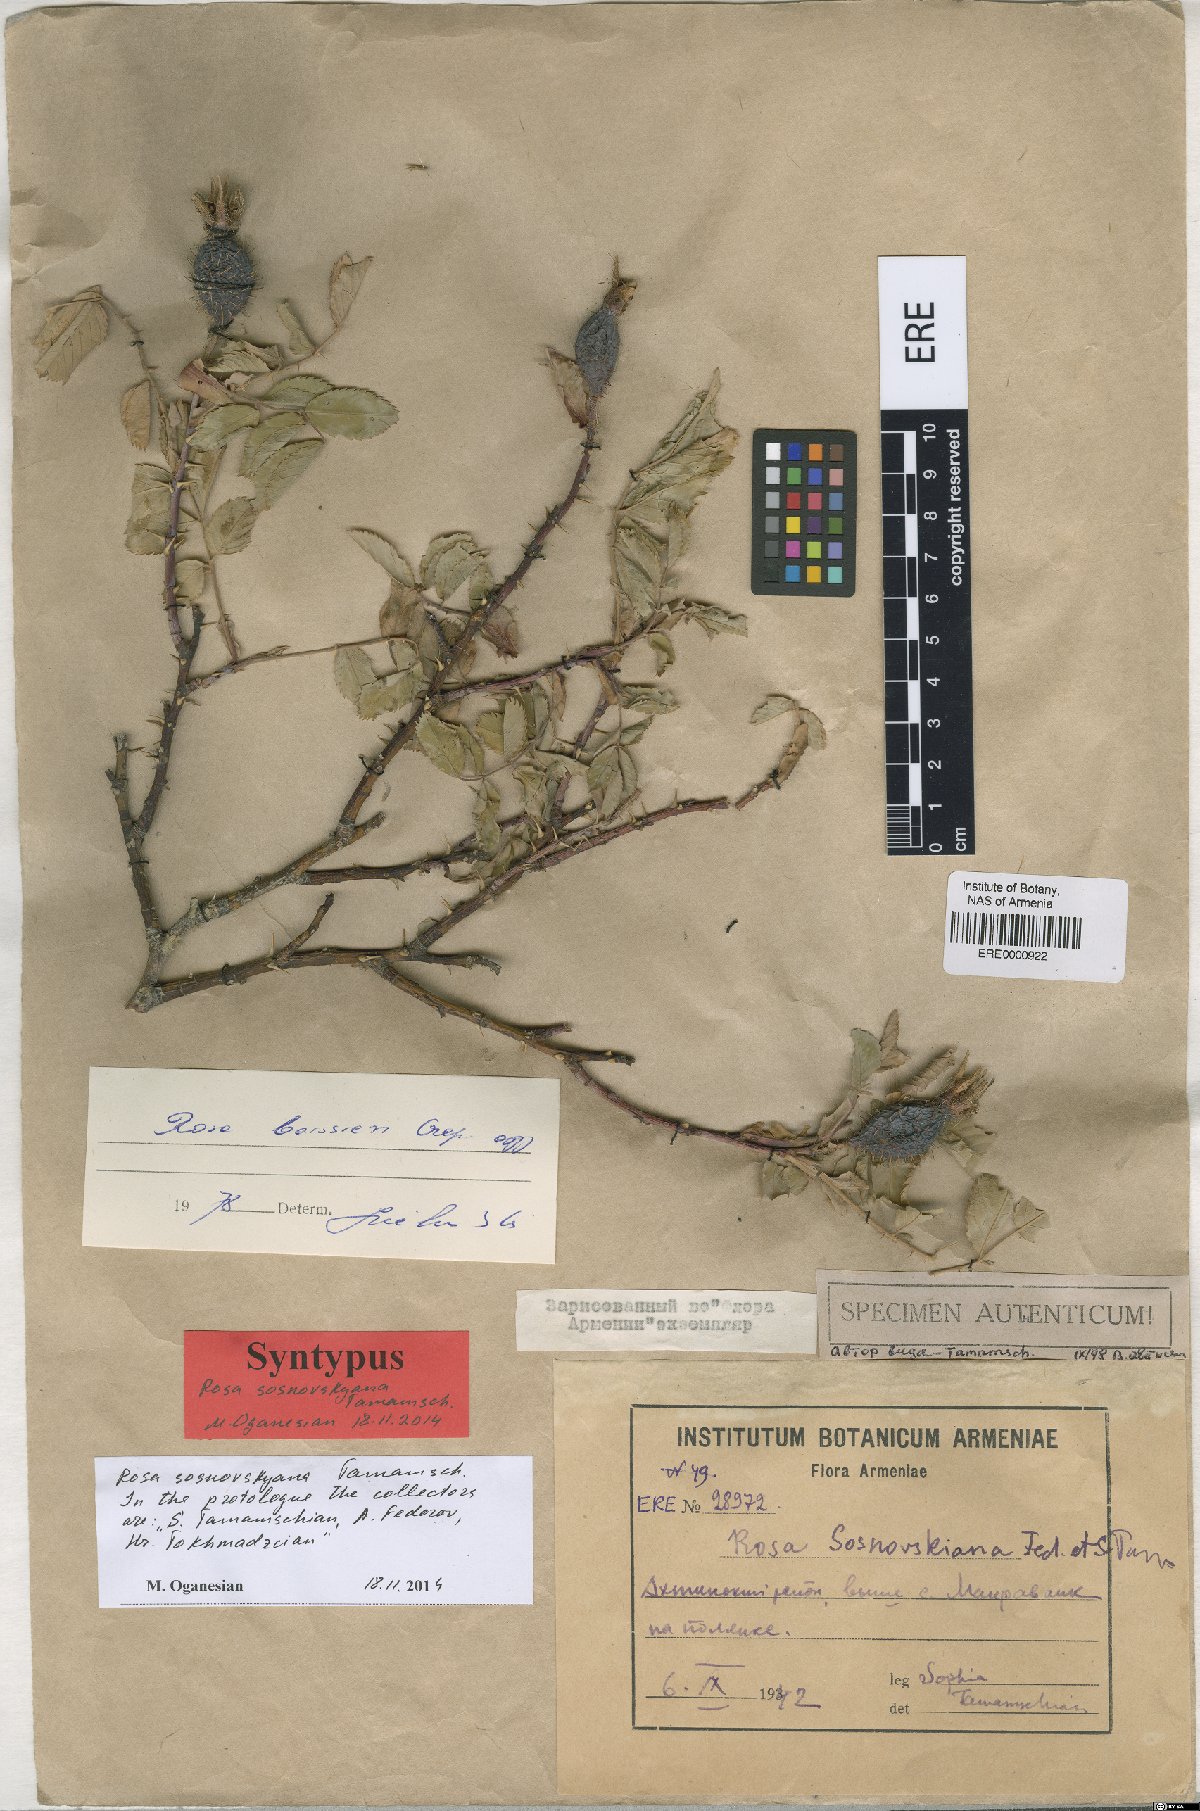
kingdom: Plantae
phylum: Tracheophyta
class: Magnoliopsida
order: Rosales
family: Rosaceae
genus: Rosa
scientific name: Rosa boissieri
